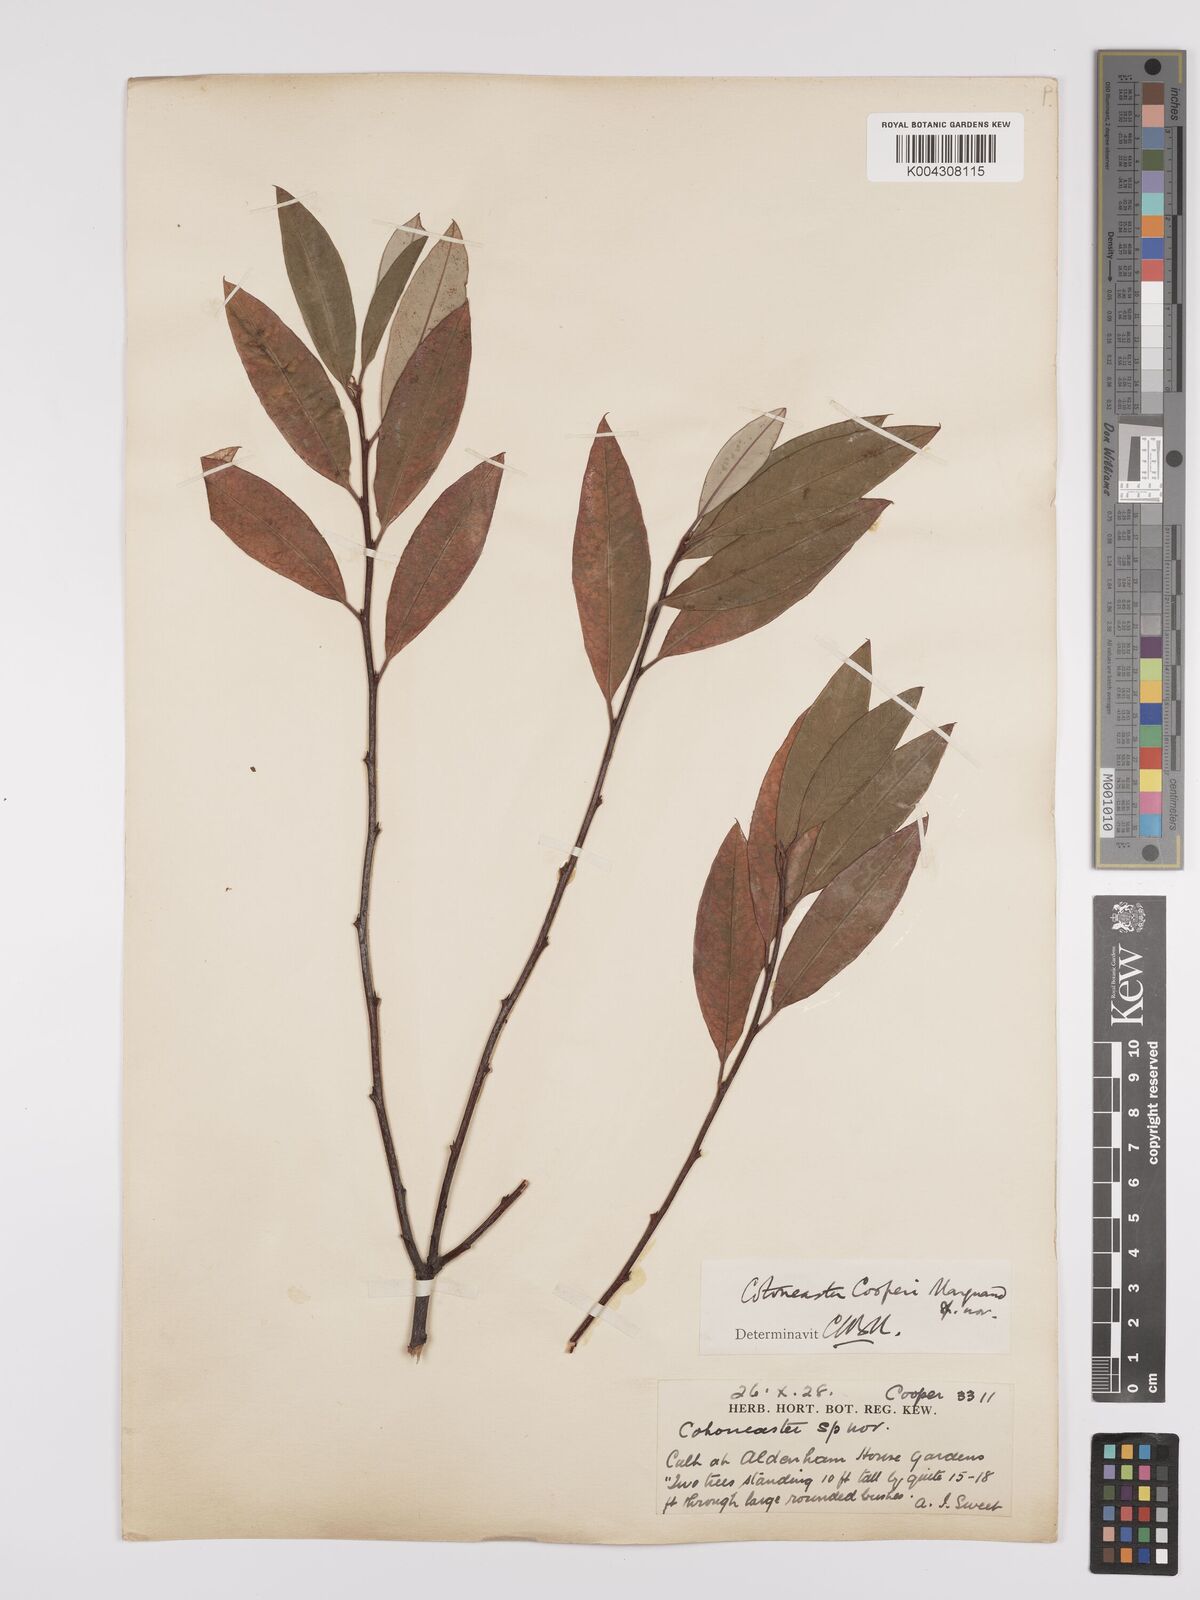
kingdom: Plantae
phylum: Tracheophyta
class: Magnoliopsida
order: Rosales
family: Rosaceae
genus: Cotoneaster
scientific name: Cotoneaster cooperi
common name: Cooper's cotoneaster
